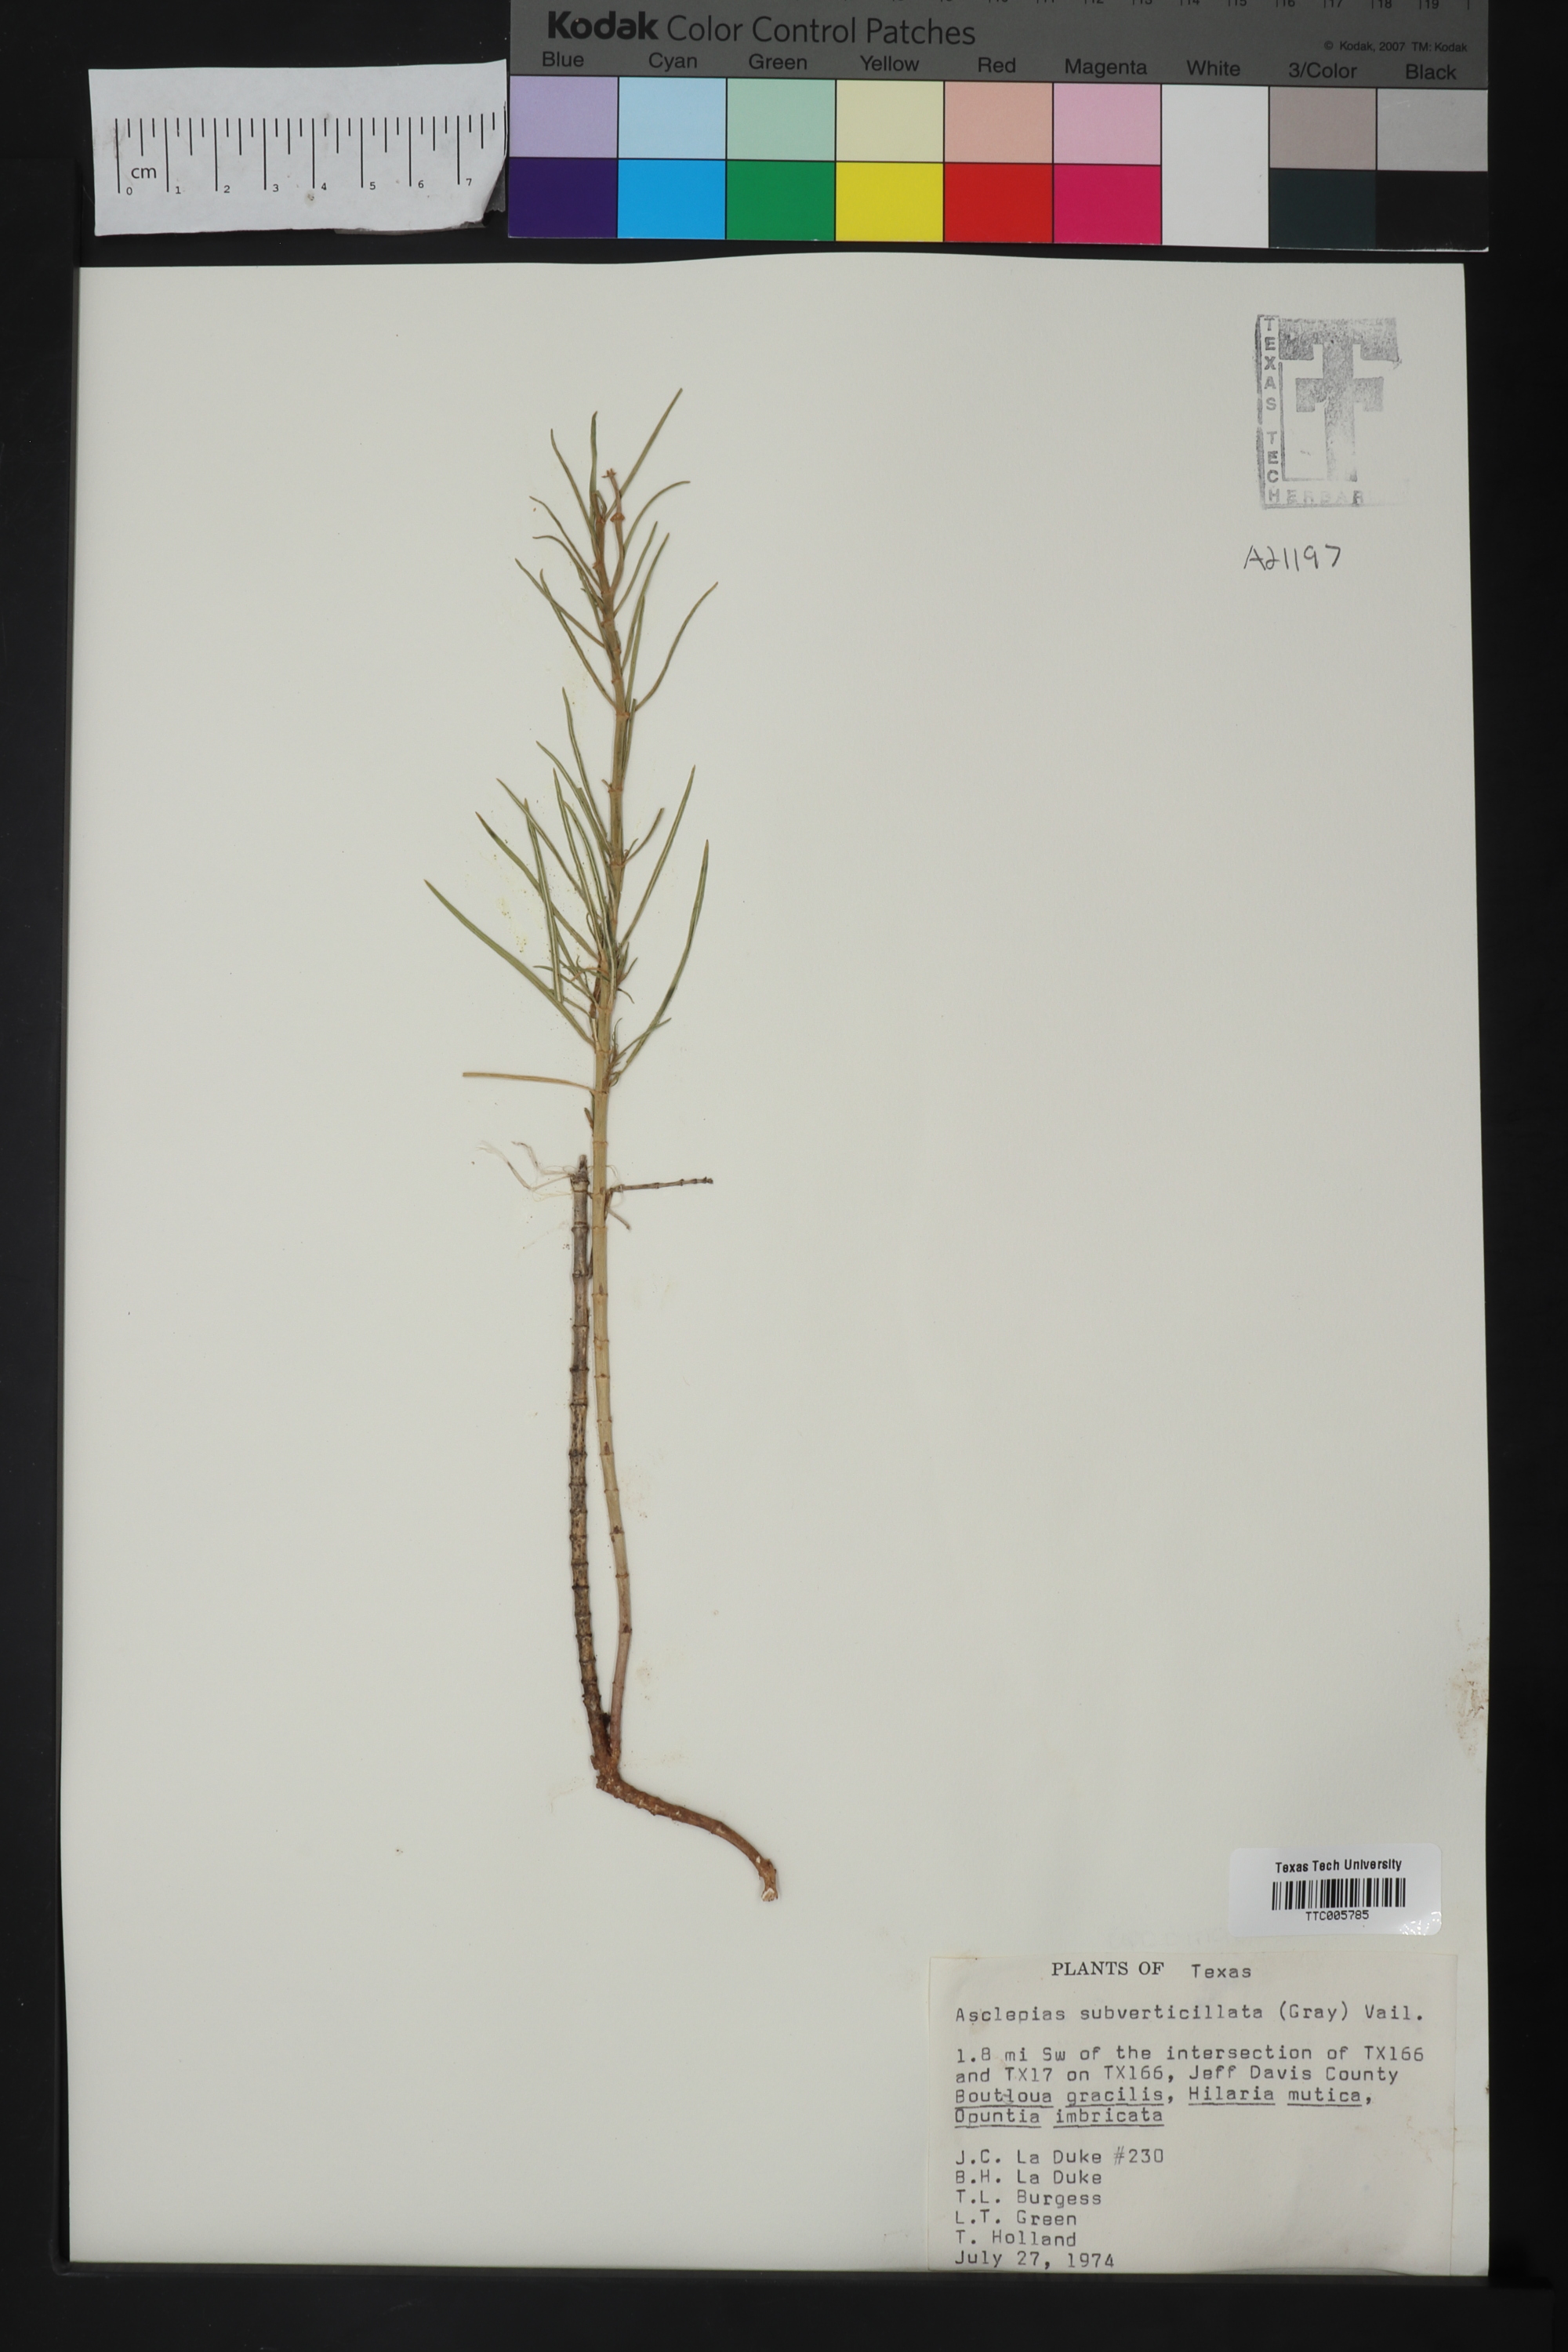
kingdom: Plantae
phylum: Tracheophyta
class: Magnoliopsida
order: Gentianales
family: Apocynaceae
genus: Asclepias
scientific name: Asclepias subverticillata
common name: Horsetail milkweed
